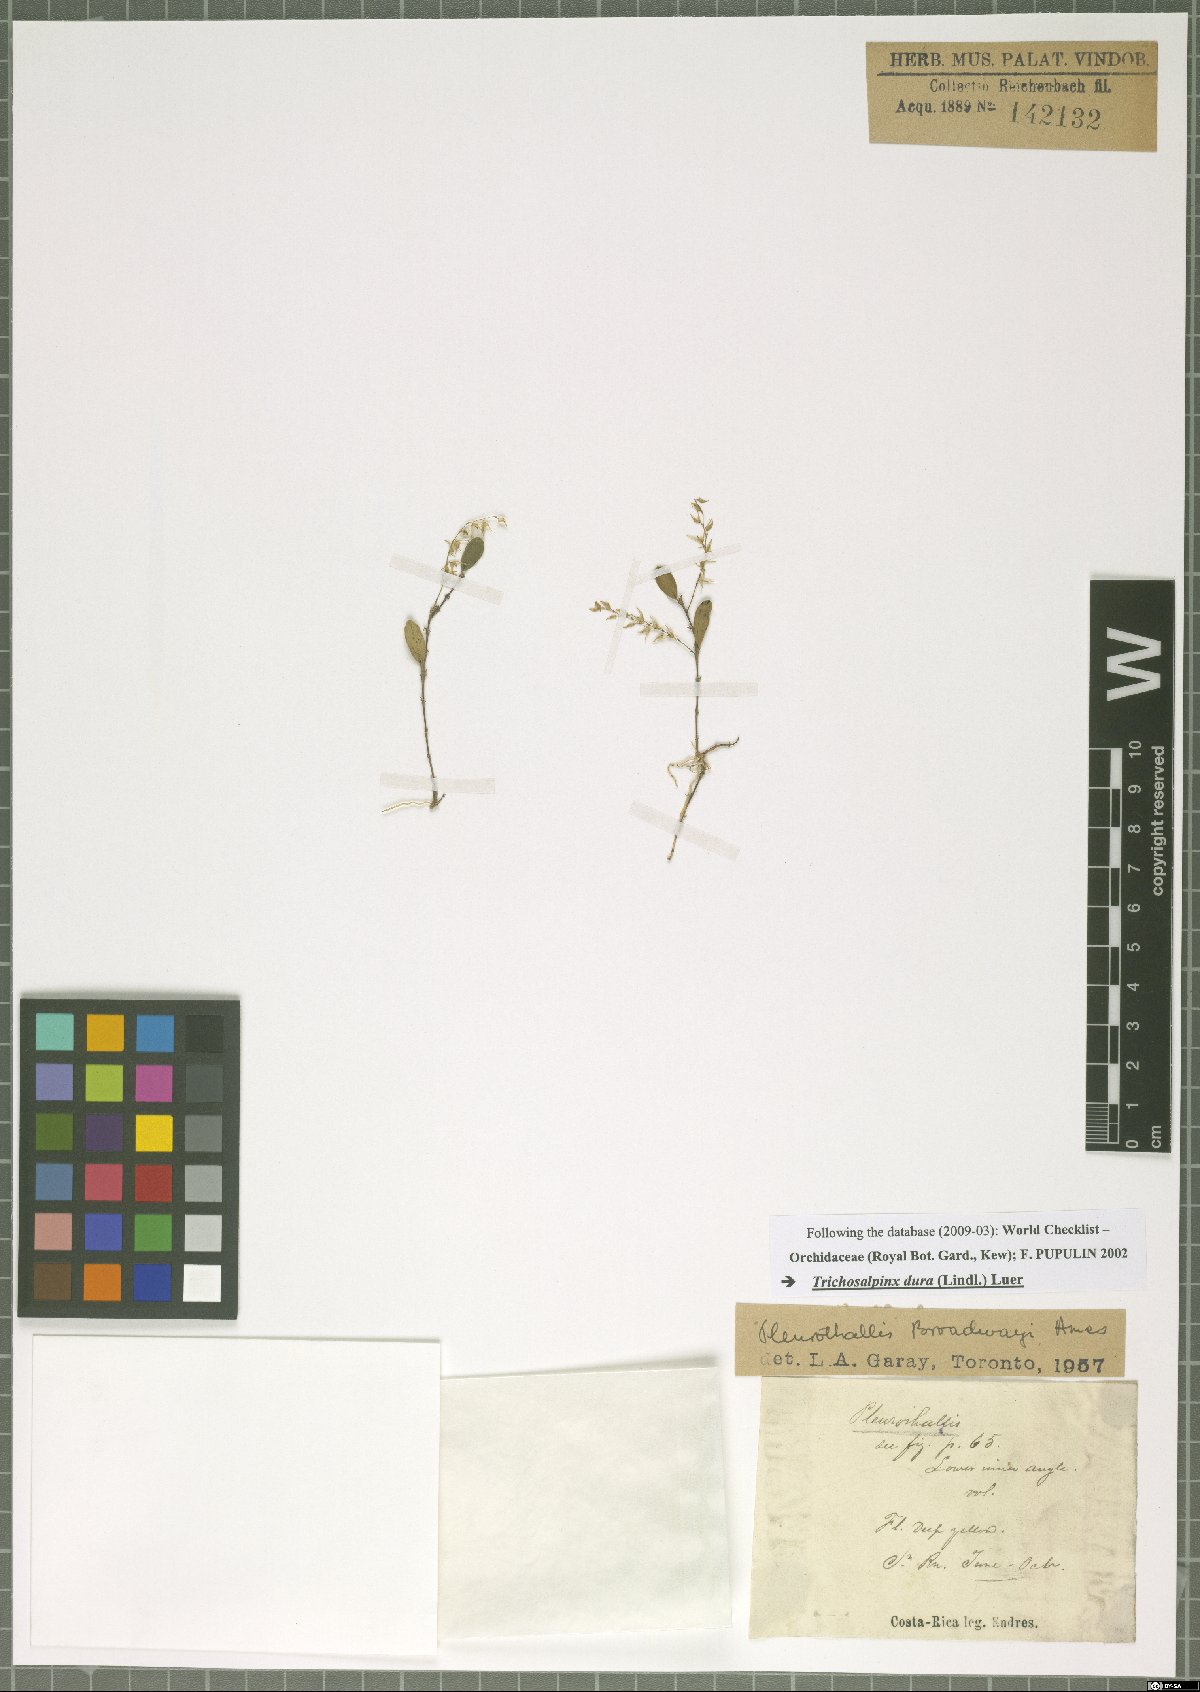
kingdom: Plantae
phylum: Tracheophyta
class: Liliopsida
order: Asparagales
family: Orchidaceae
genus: Trichosalpinx
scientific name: Trichosalpinx dura
